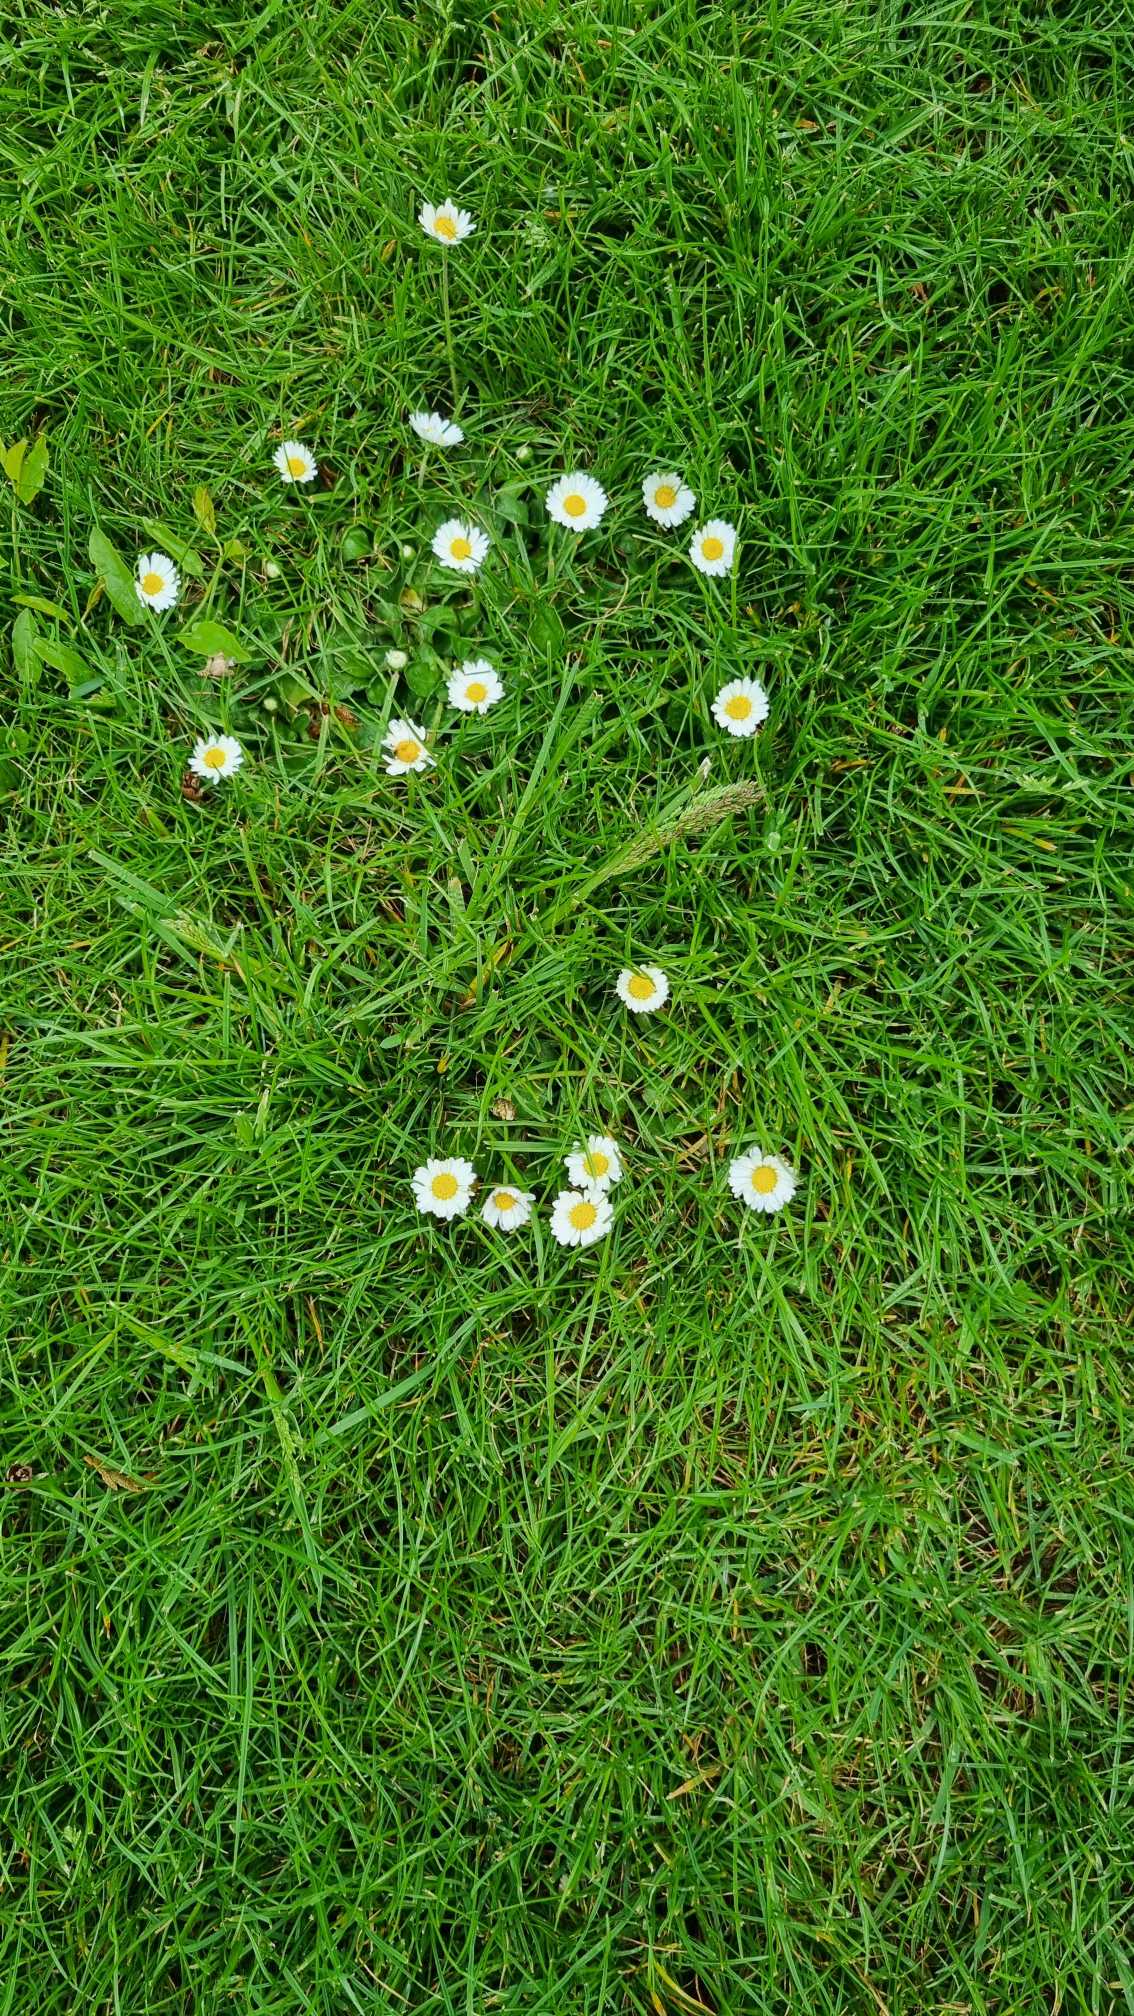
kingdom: Plantae
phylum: Tracheophyta
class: Magnoliopsida
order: Asterales
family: Asteraceae
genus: Bellis
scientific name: Bellis perennis
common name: Tusindfryd
